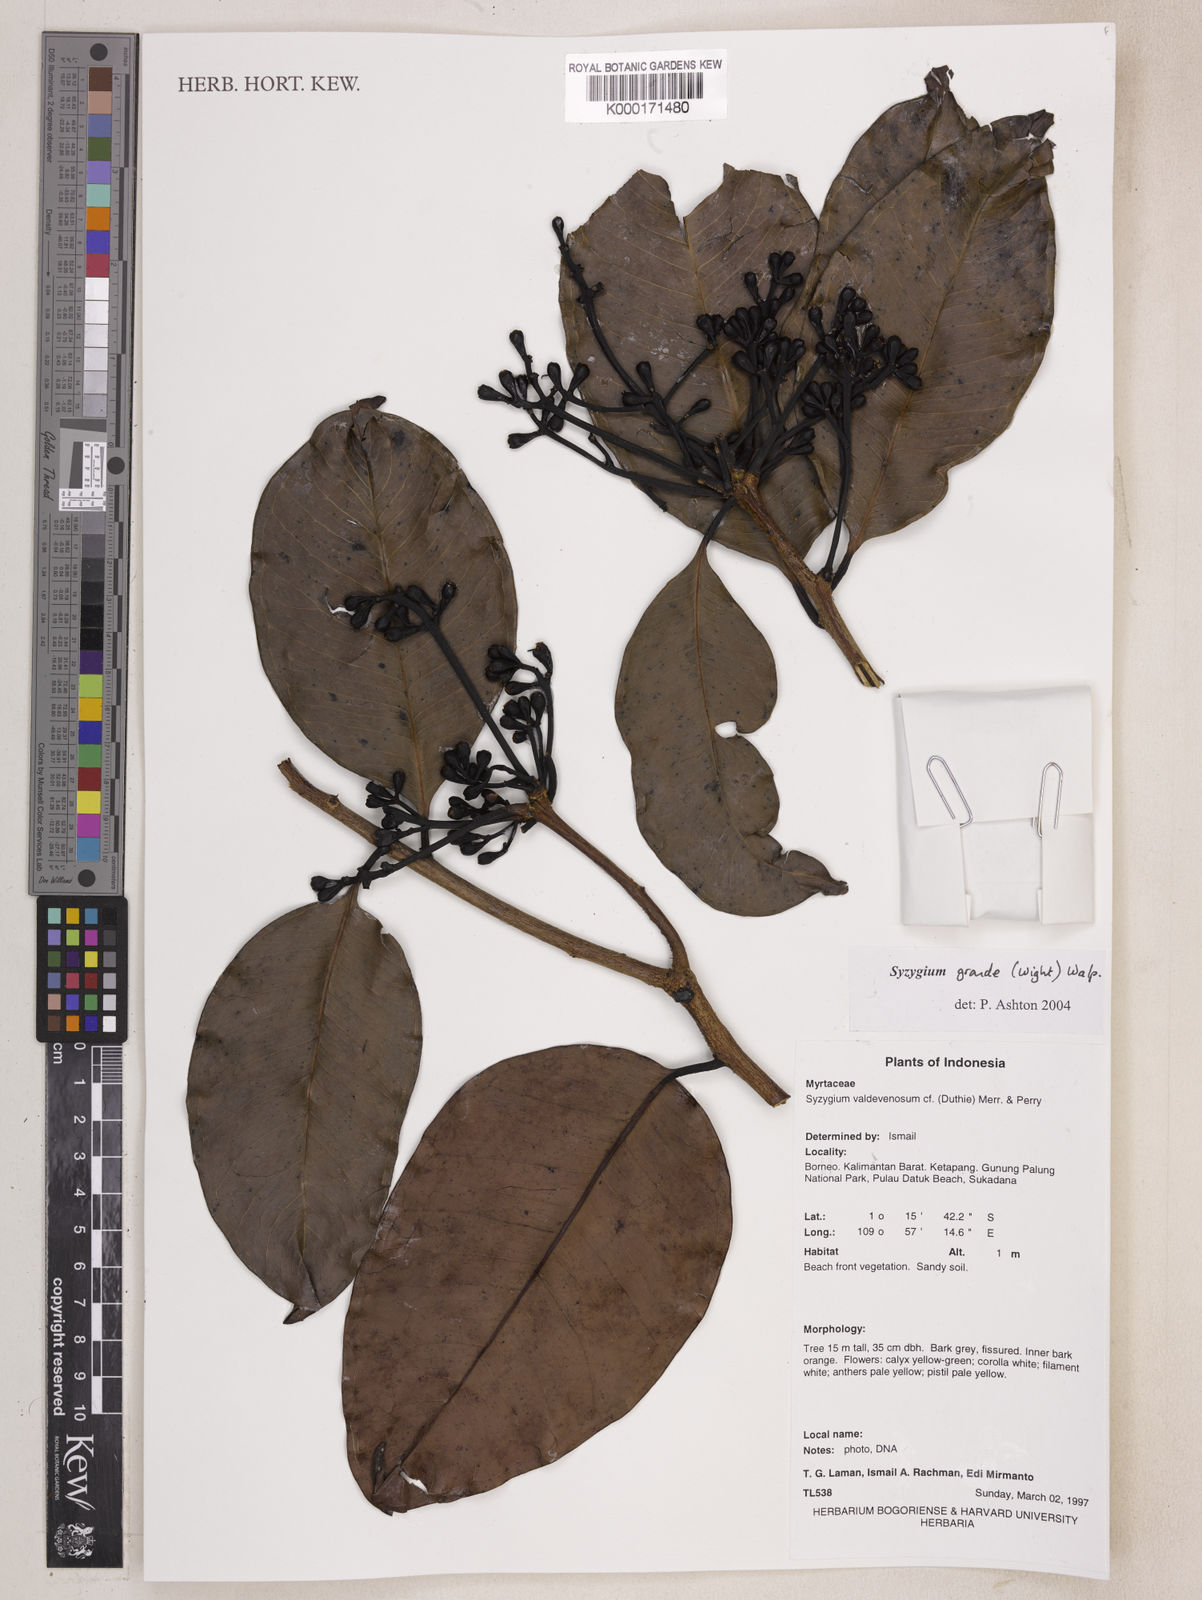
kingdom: Plantae
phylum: Tracheophyta
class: Magnoliopsida
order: Myrtales
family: Myrtaceae
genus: Syzygium
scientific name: Syzygium grande
